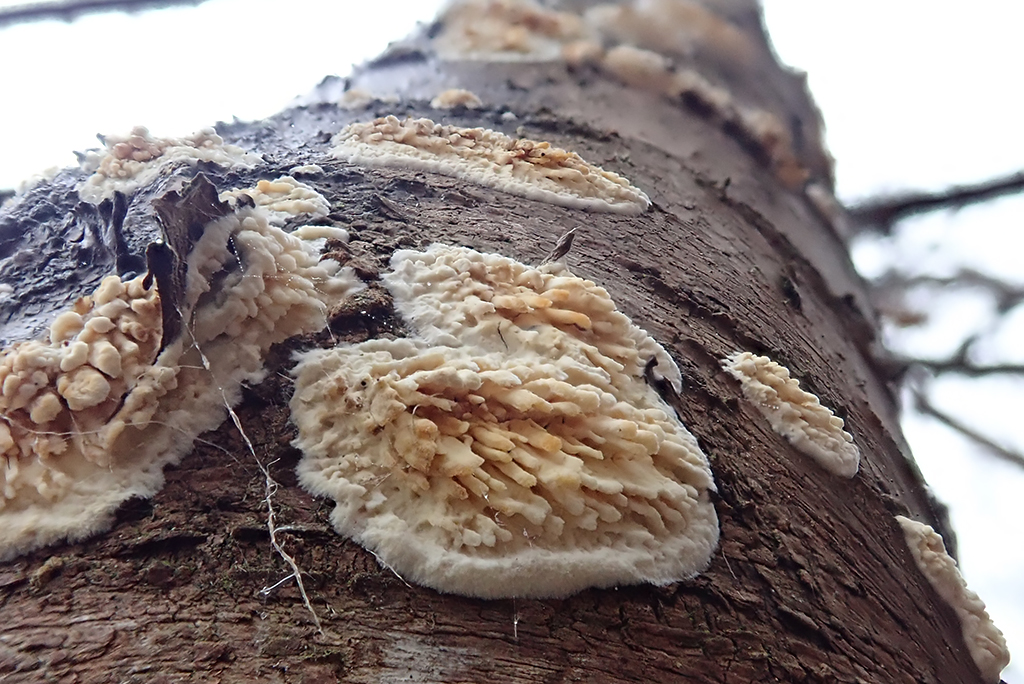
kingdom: Fungi
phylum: Basidiomycota
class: Agaricomycetes
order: Hymenochaetales
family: Schizoporaceae
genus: Xylodon
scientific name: Xylodon radula
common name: grovtandet kalkskind
